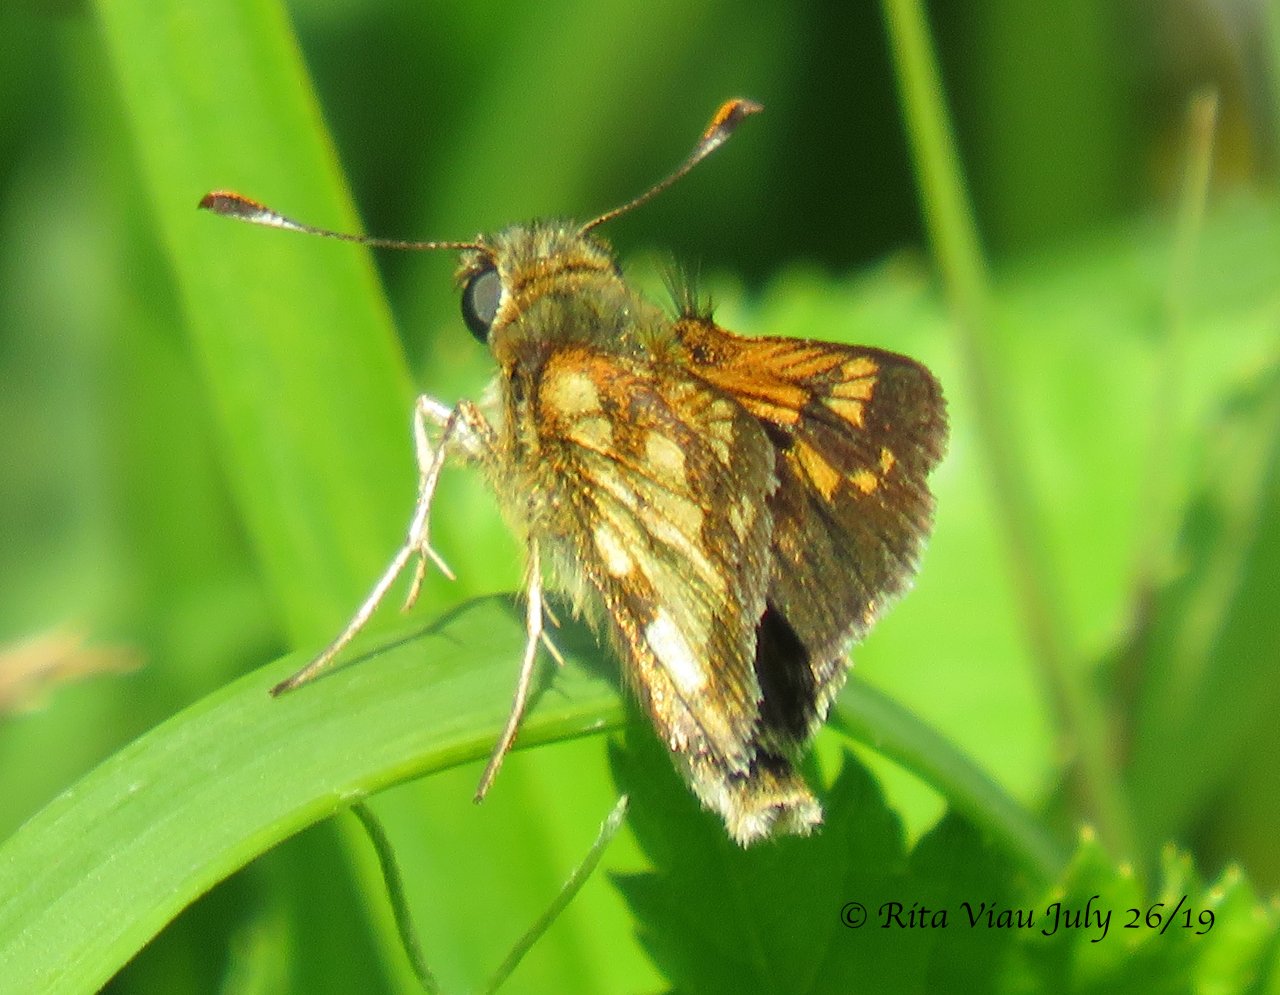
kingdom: Animalia
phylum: Arthropoda
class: Insecta
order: Lepidoptera
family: Hesperiidae
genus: Polites
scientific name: Polites coras
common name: Peck's Skipper
